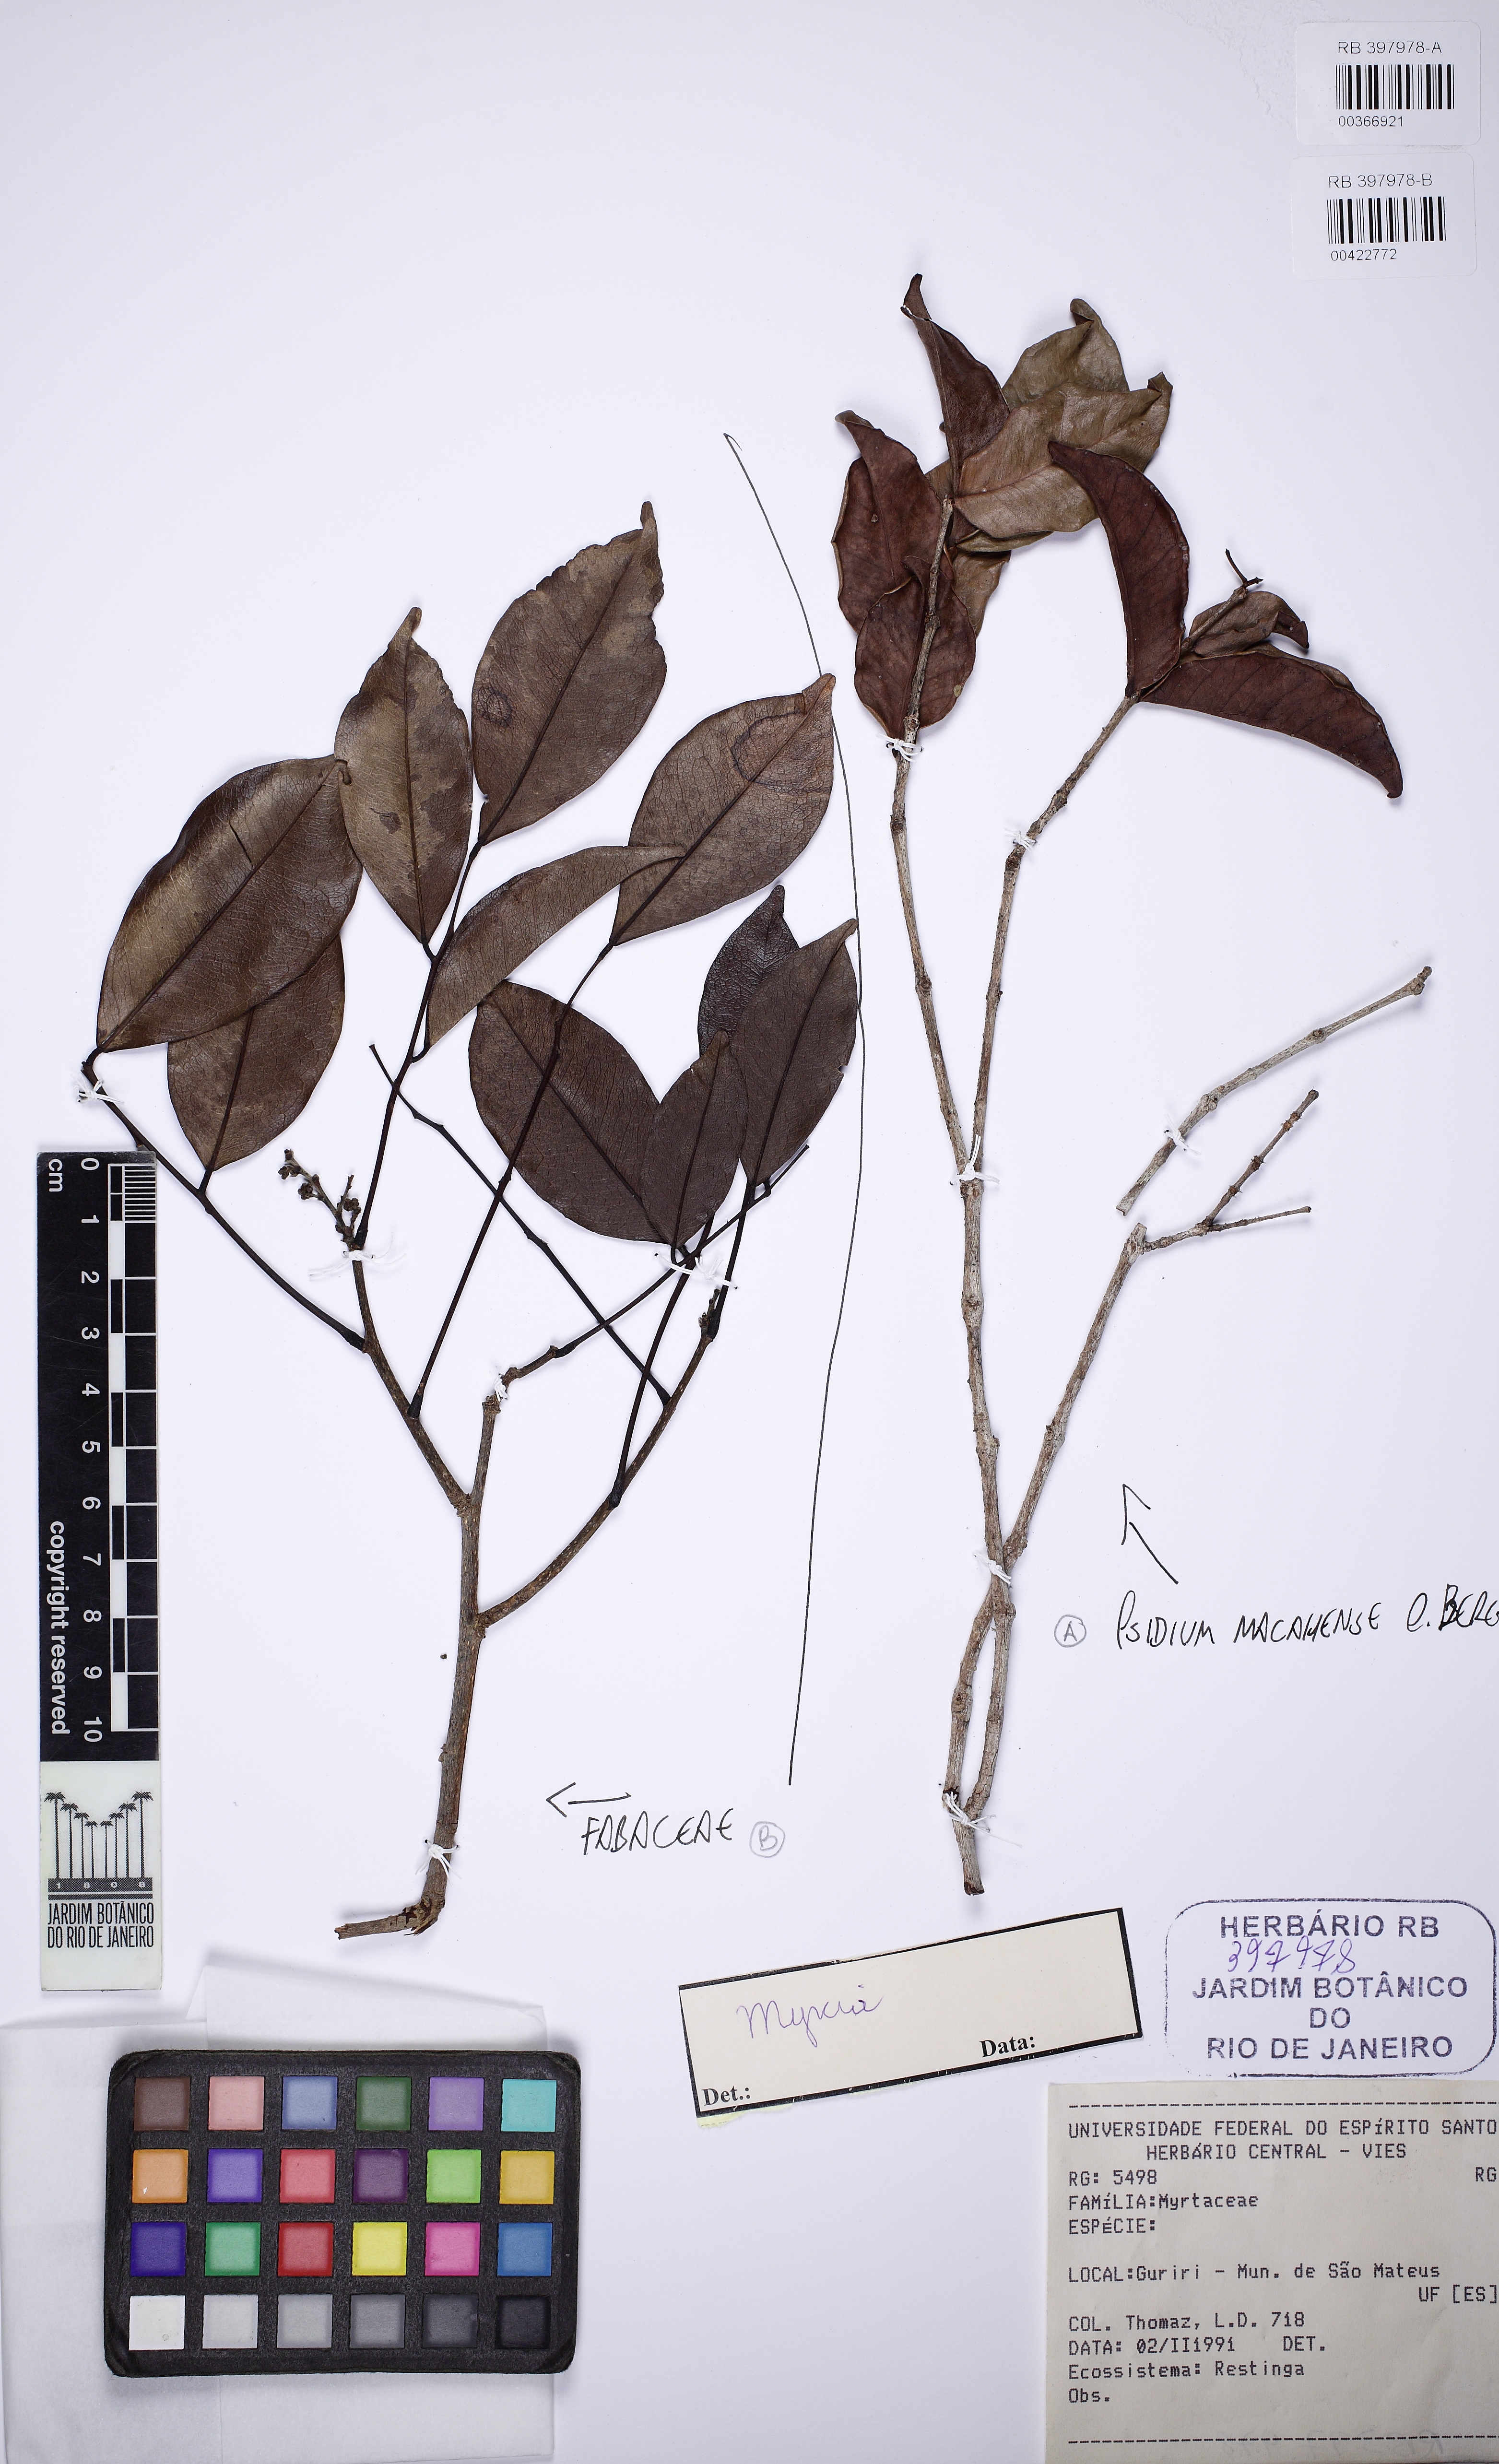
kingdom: Plantae
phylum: Tracheophyta
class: Magnoliopsida
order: Myrtales
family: Myrtaceae
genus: Psidium
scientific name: Psidium brownianum
